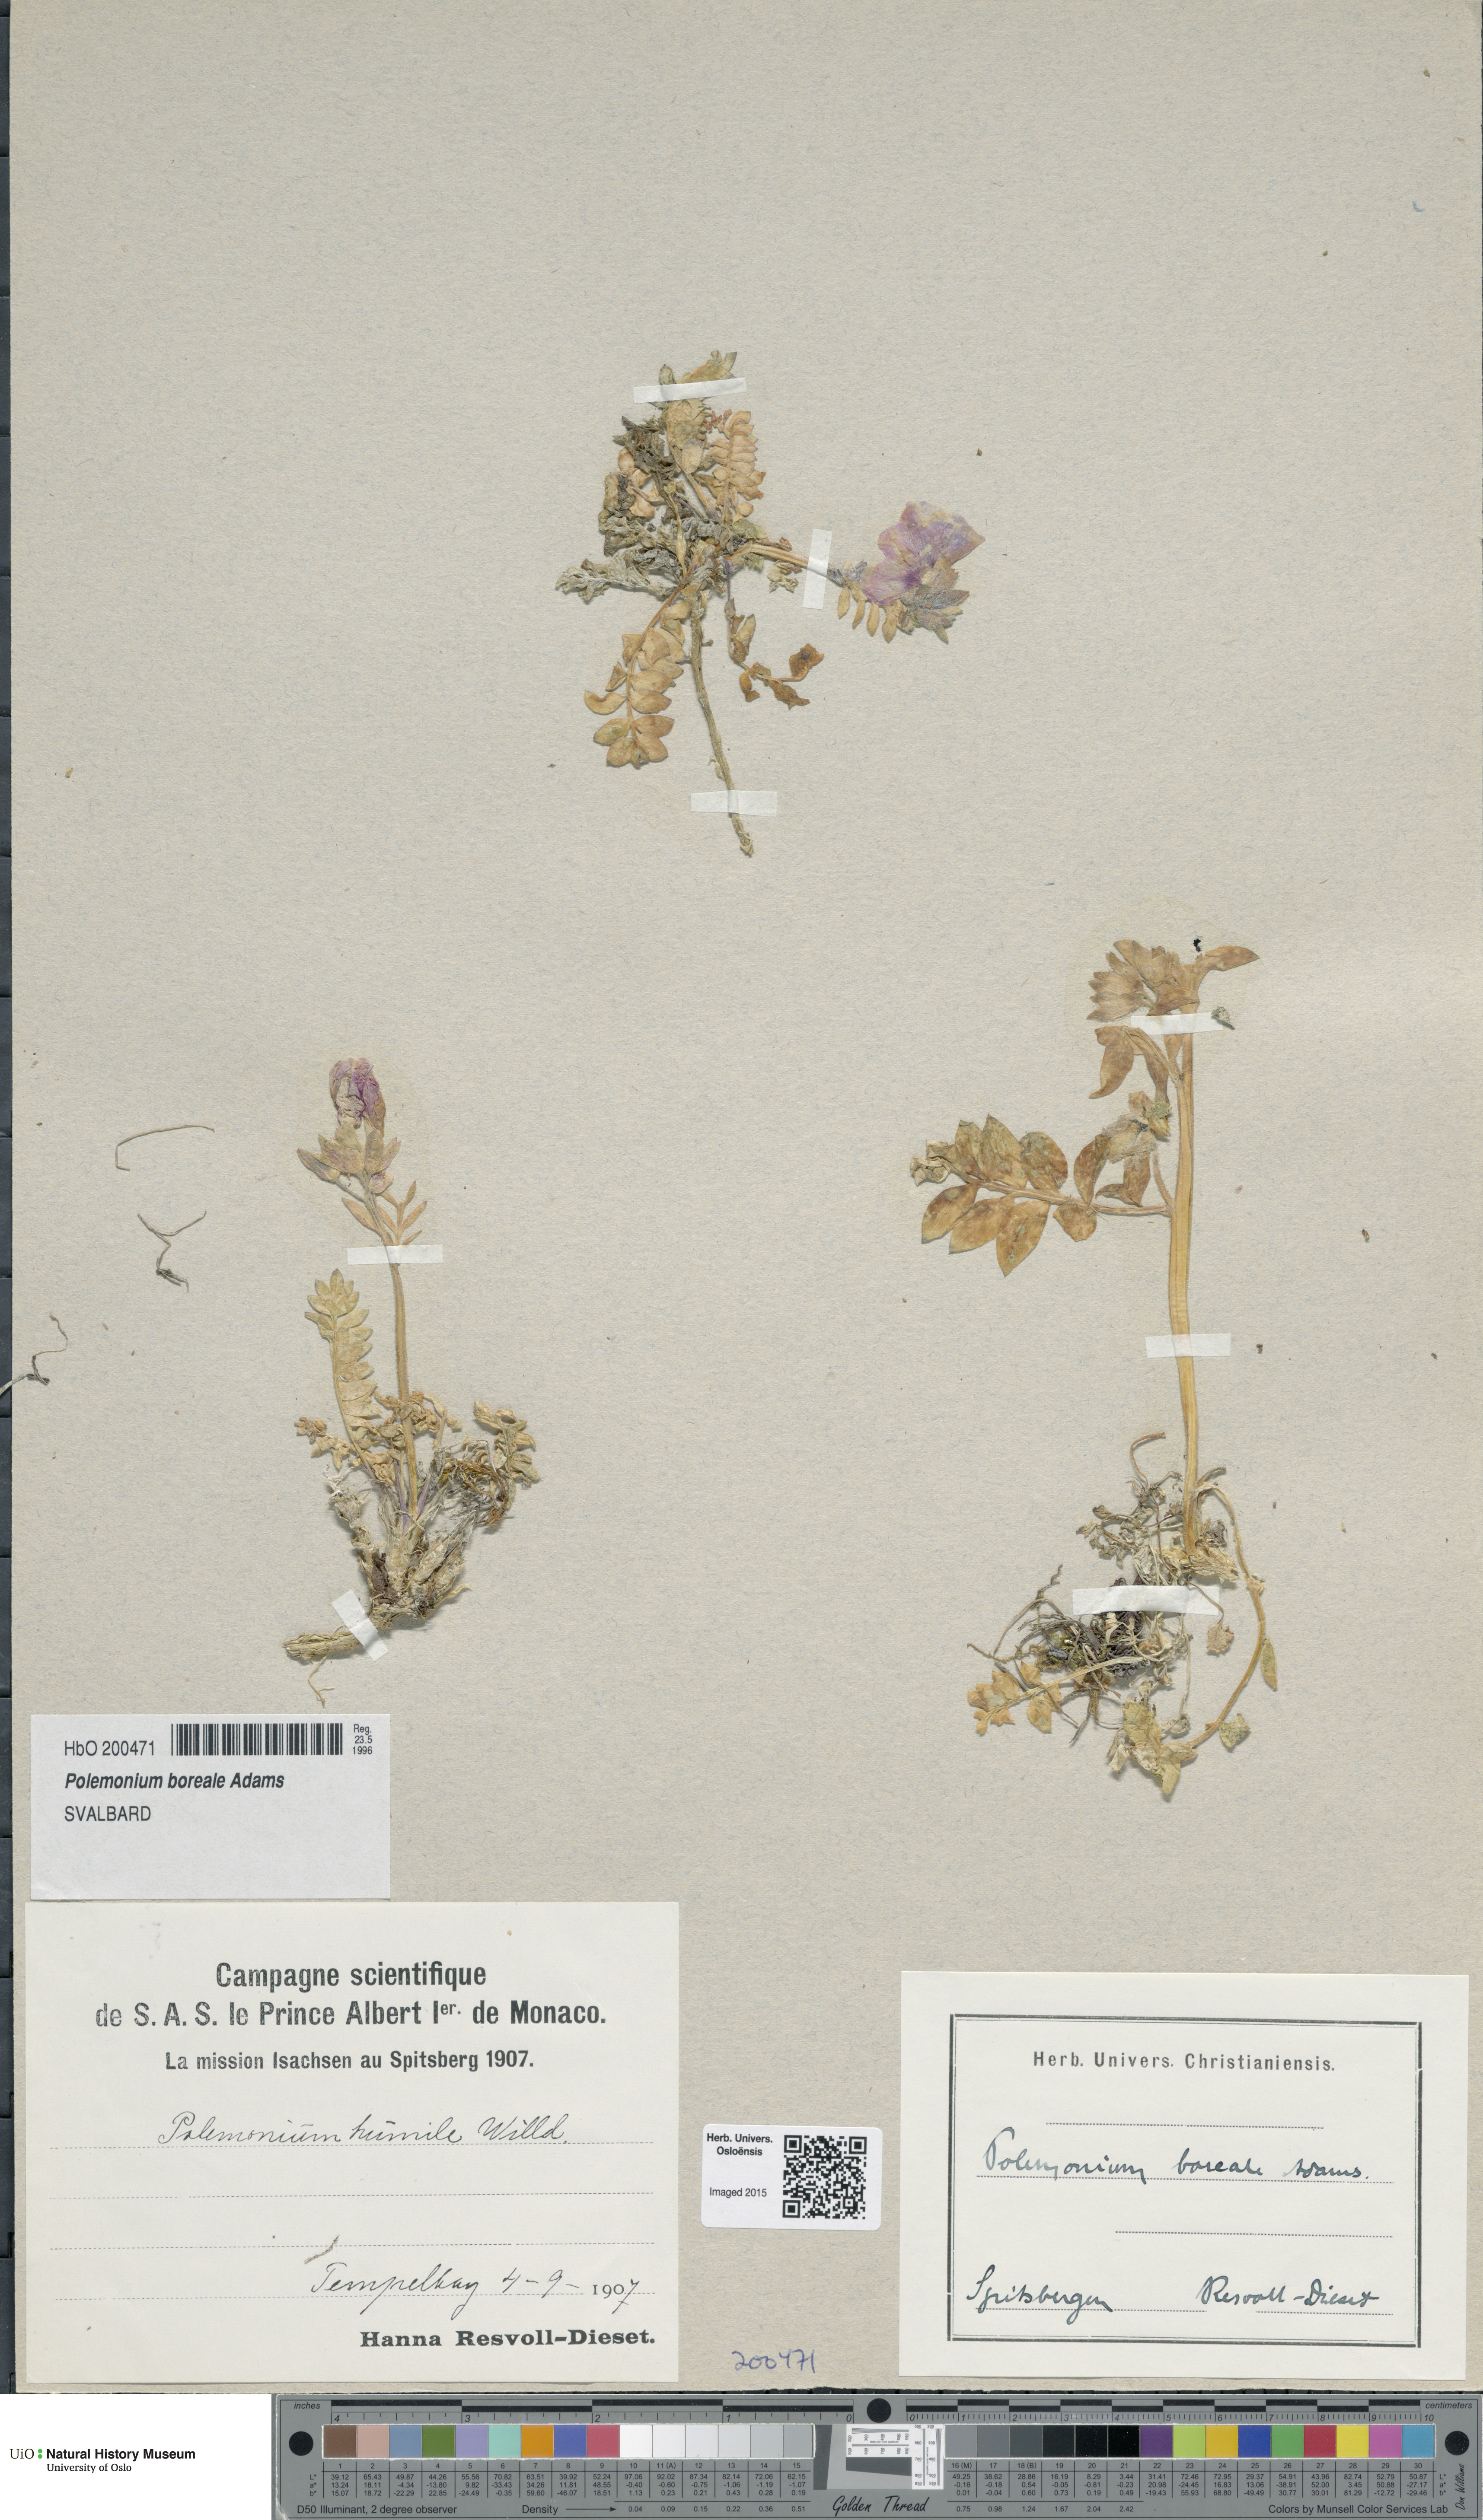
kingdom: Plantae
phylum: Tracheophyta
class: Magnoliopsida
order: Ericales
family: Polemoniaceae
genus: Polemonium
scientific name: Polemonium boreale
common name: Boreal jacob's-ladder
